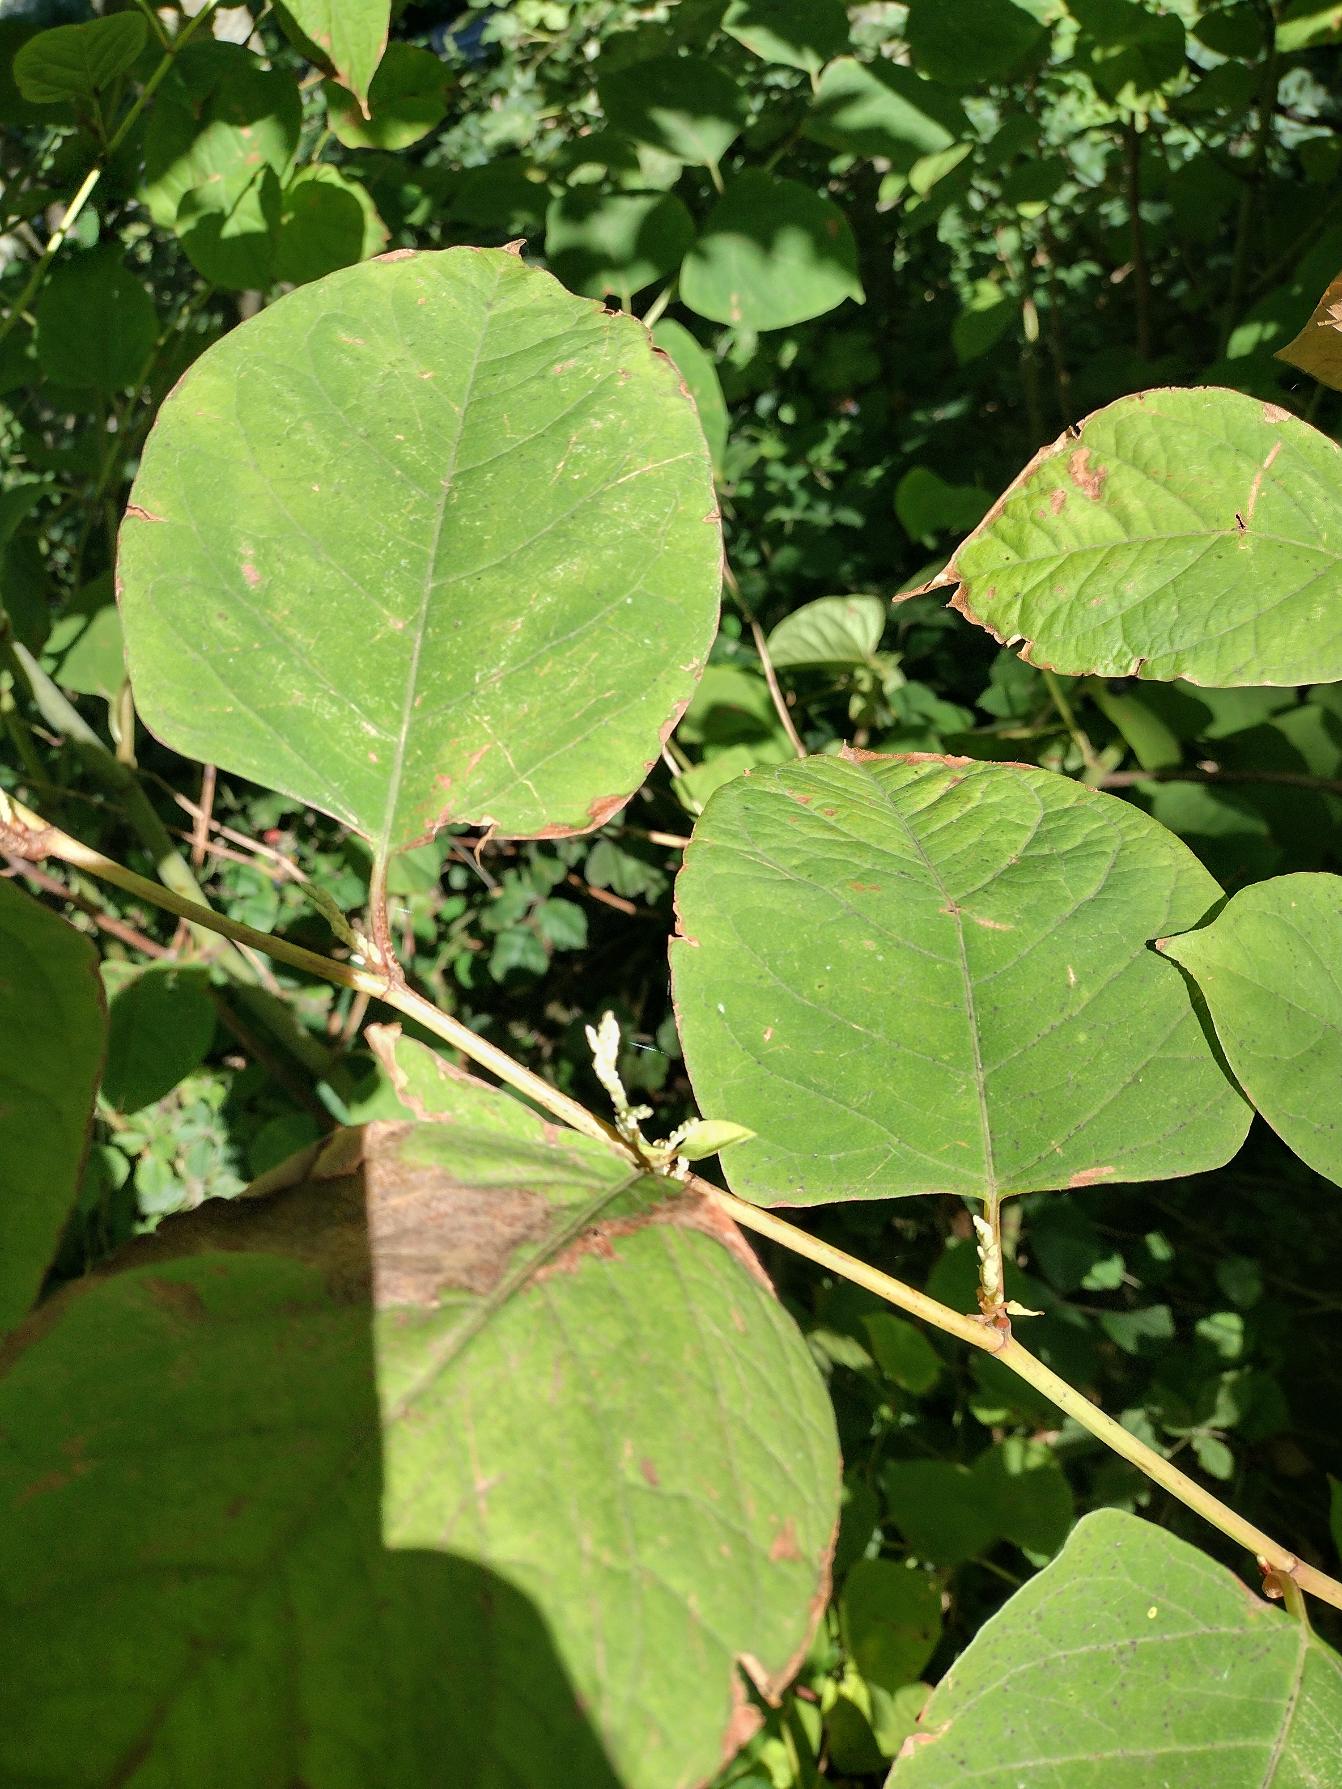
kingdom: Plantae
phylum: Tracheophyta
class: Magnoliopsida
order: Caryophyllales
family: Polygonaceae
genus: Reynoutria
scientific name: Reynoutria japonica
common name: Japan-pileurt
